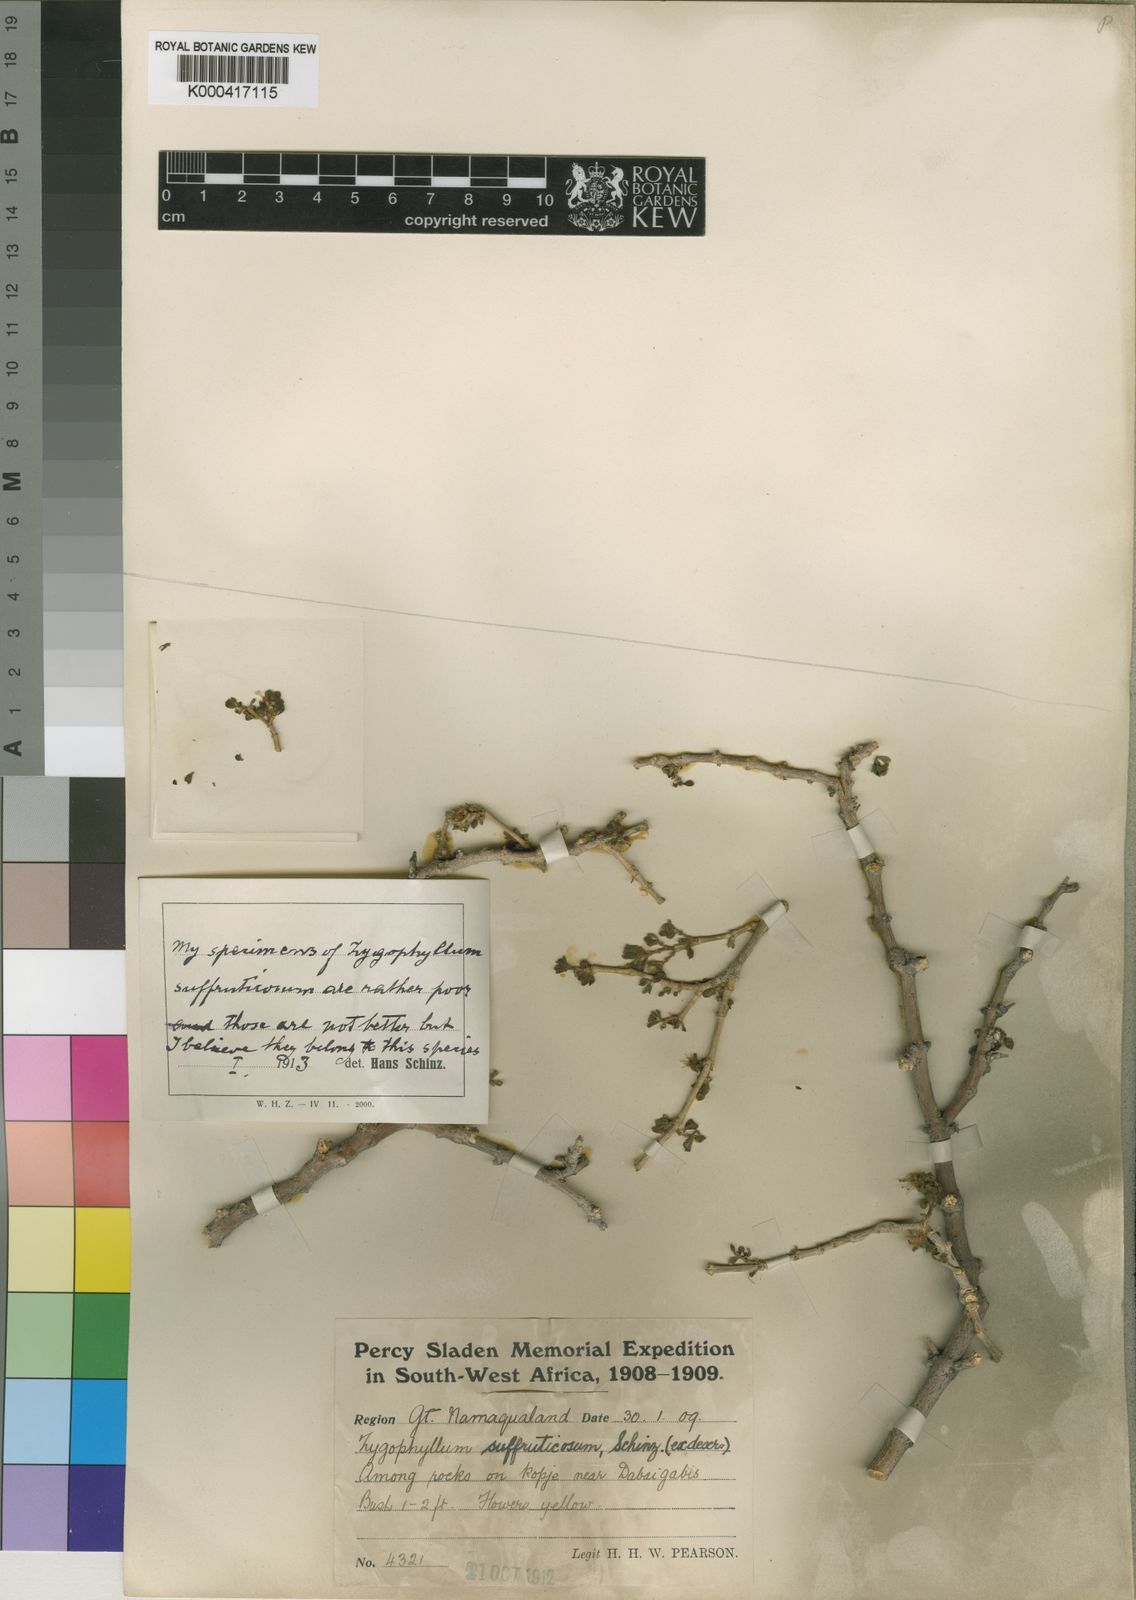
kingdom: Plantae
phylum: Tracheophyta
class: Magnoliopsida
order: Zygophyllales
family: Zygophyllaceae
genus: Tetraena
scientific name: Tetraena rigida
